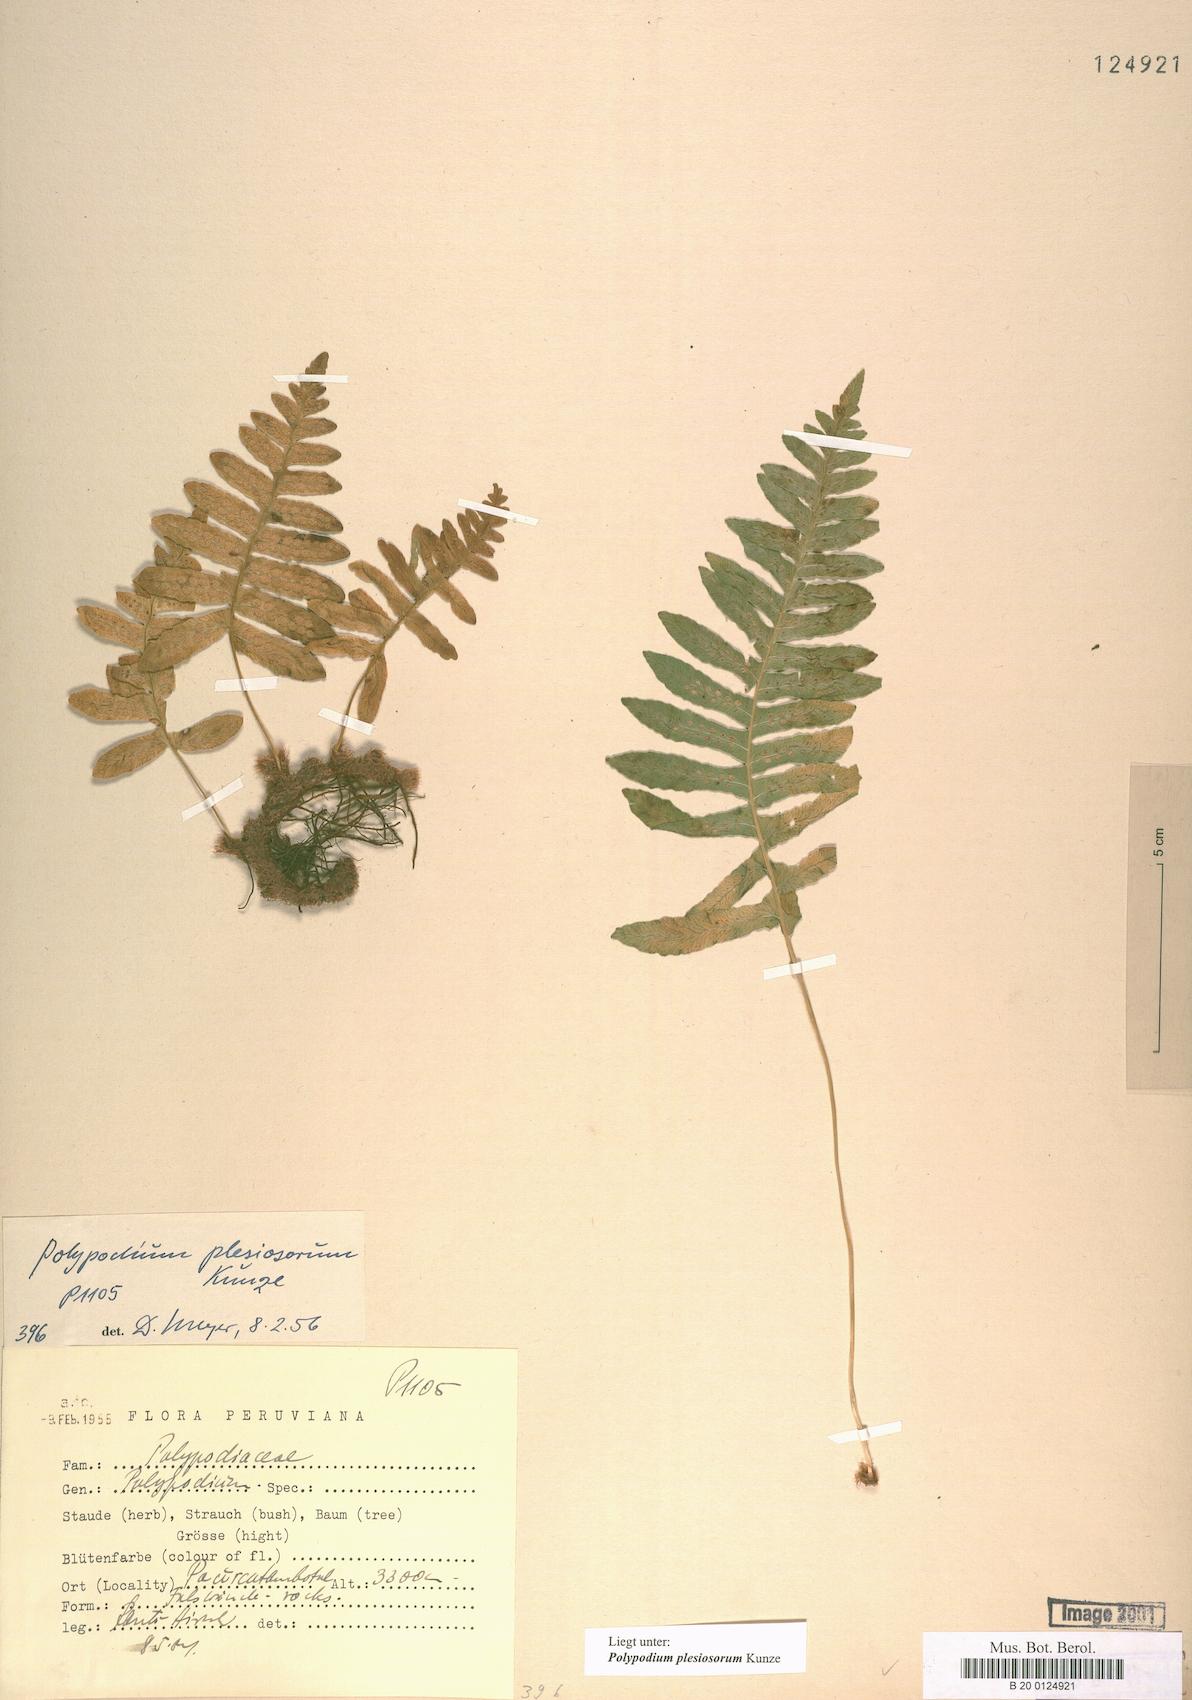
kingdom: Plantae
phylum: Tracheophyta
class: Polypodiopsida
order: Polypodiales
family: Polypodiaceae
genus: Polypodium
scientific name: Polypodium plesiosorum
